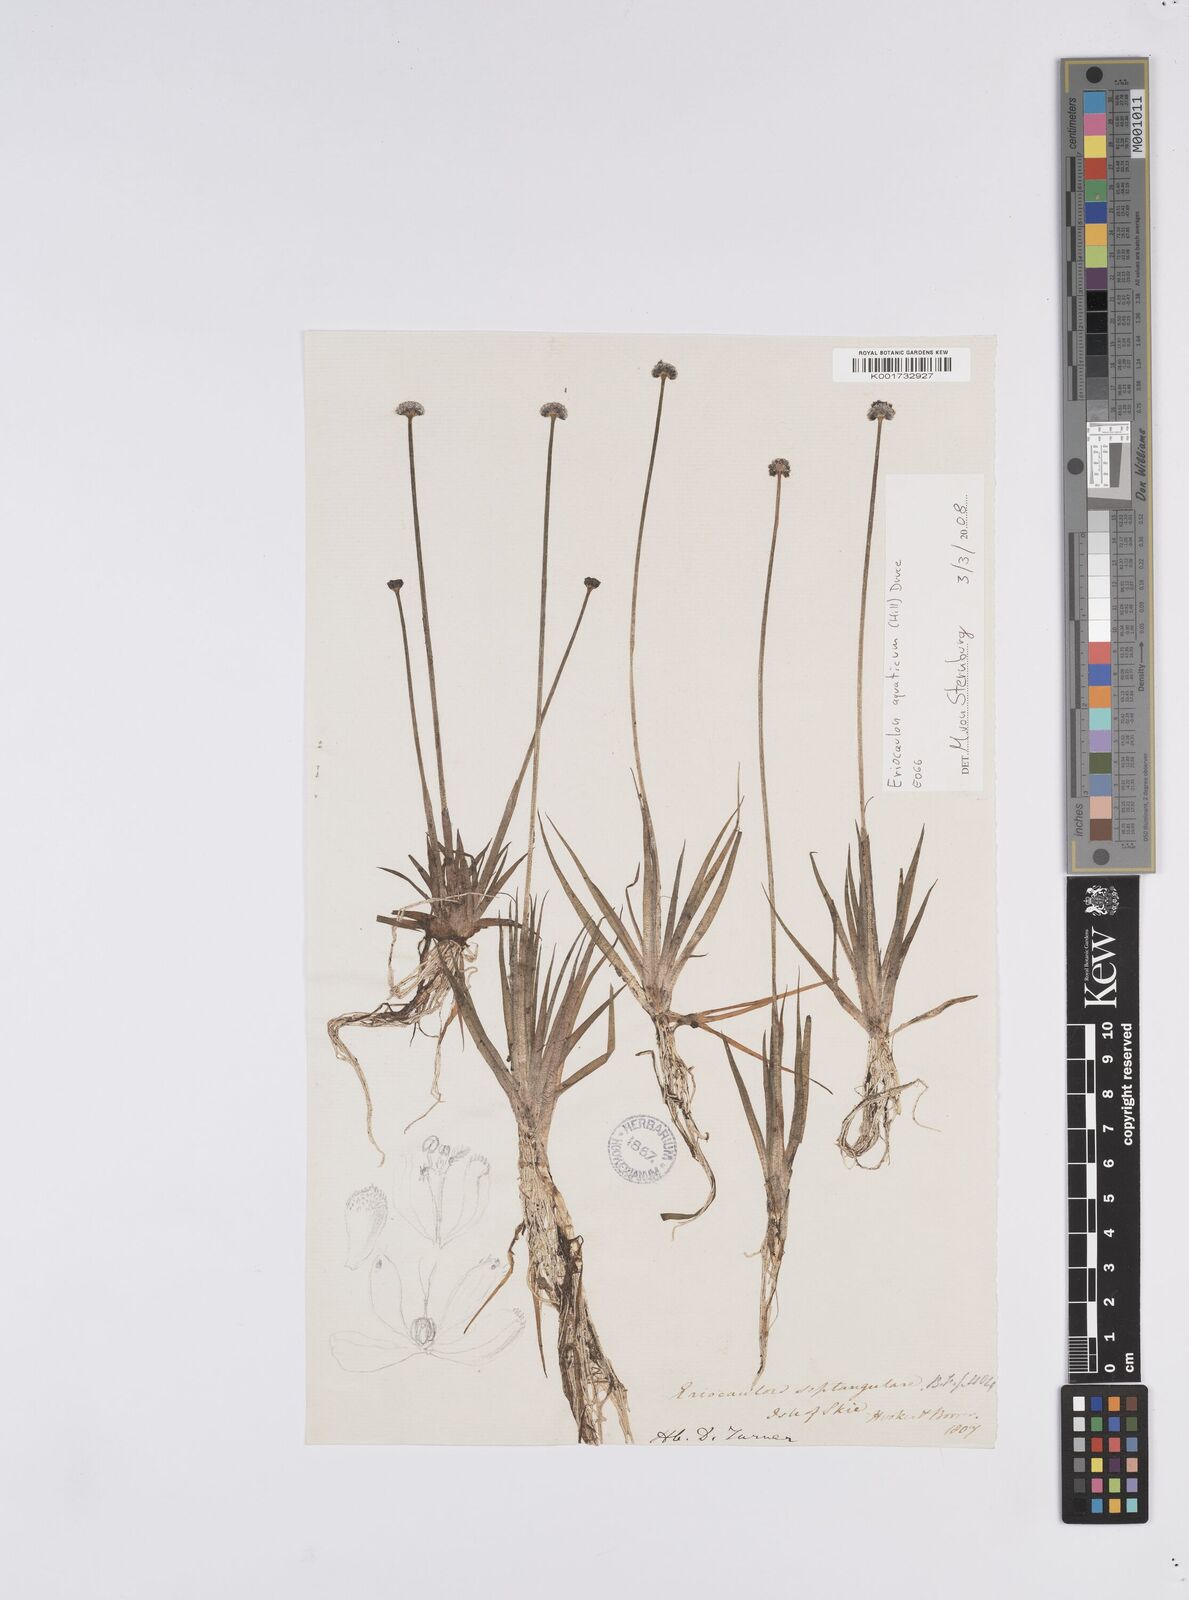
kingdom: Plantae
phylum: Tracheophyta
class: Liliopsida
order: Poales
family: Eriocaulaceae
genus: Eriocaulon
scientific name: Eriocaulon aquaticum
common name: Pipewort
